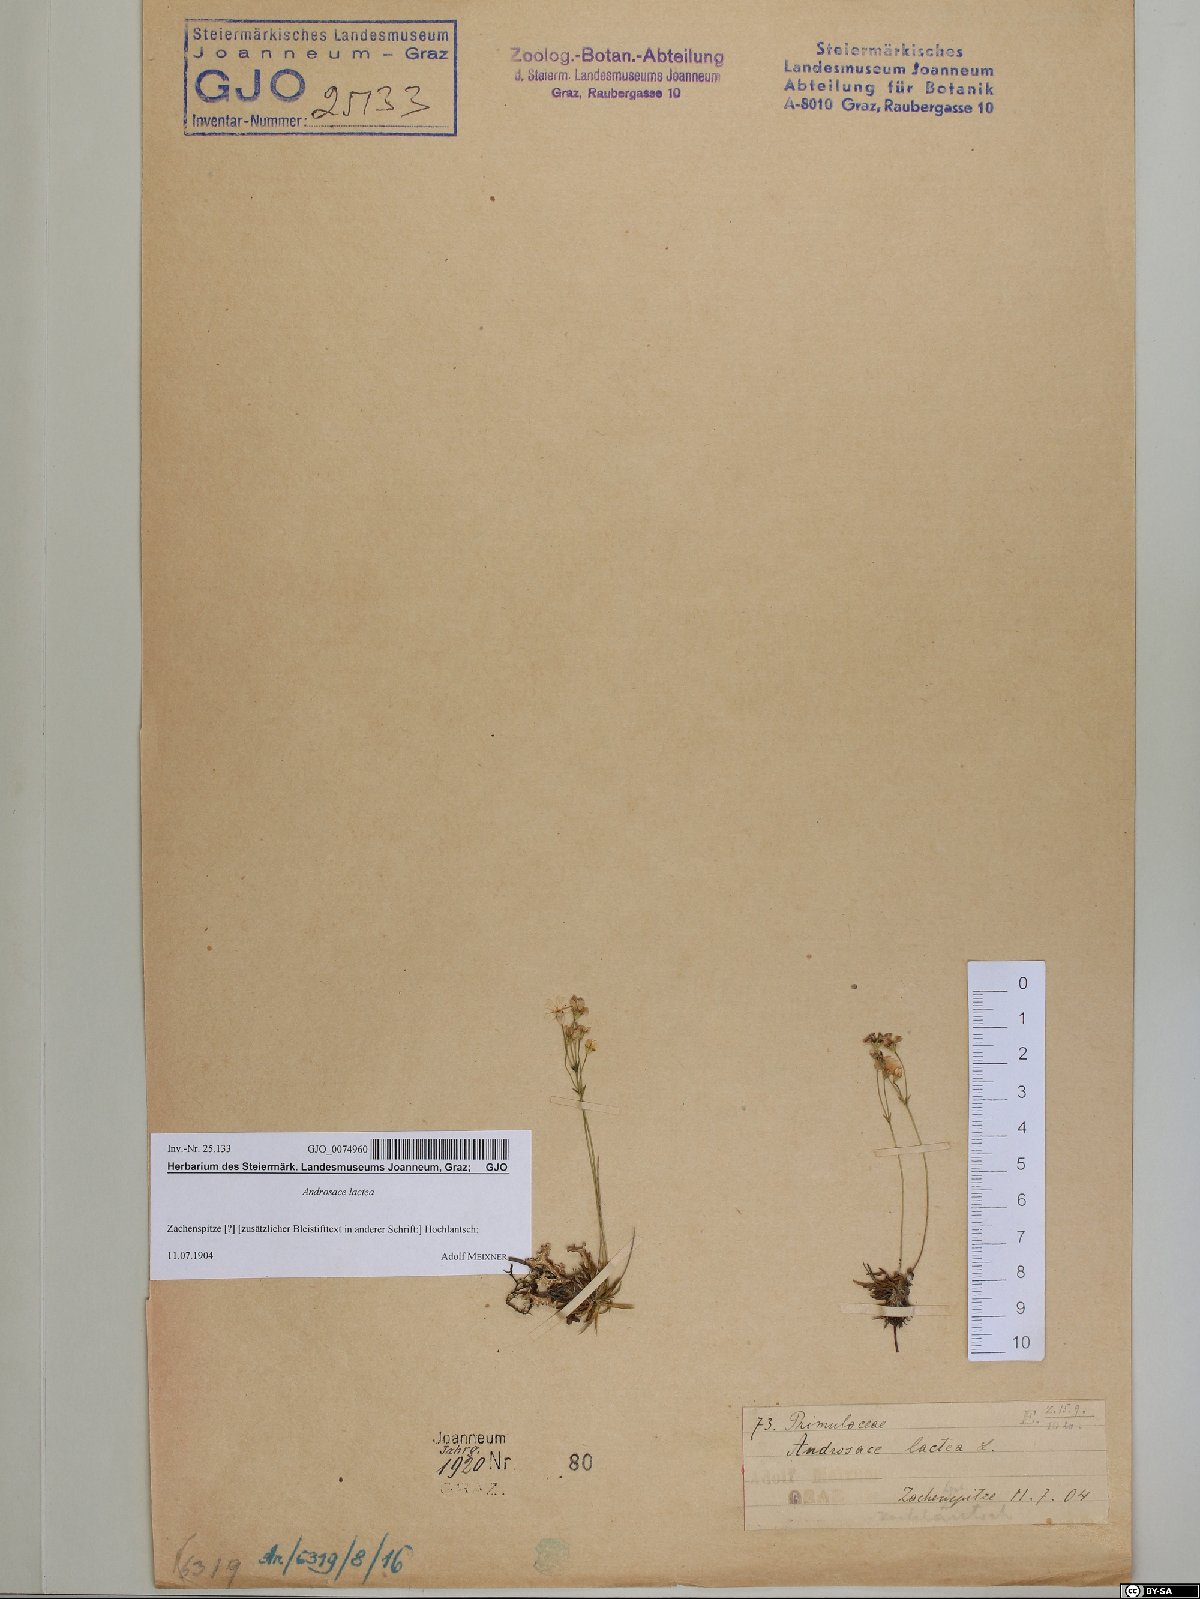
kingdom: Plantae
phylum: Tracheophyta
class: Magnoliopsida
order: Ericales
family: Primulaceae
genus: Androsace
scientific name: Androsace lactea
